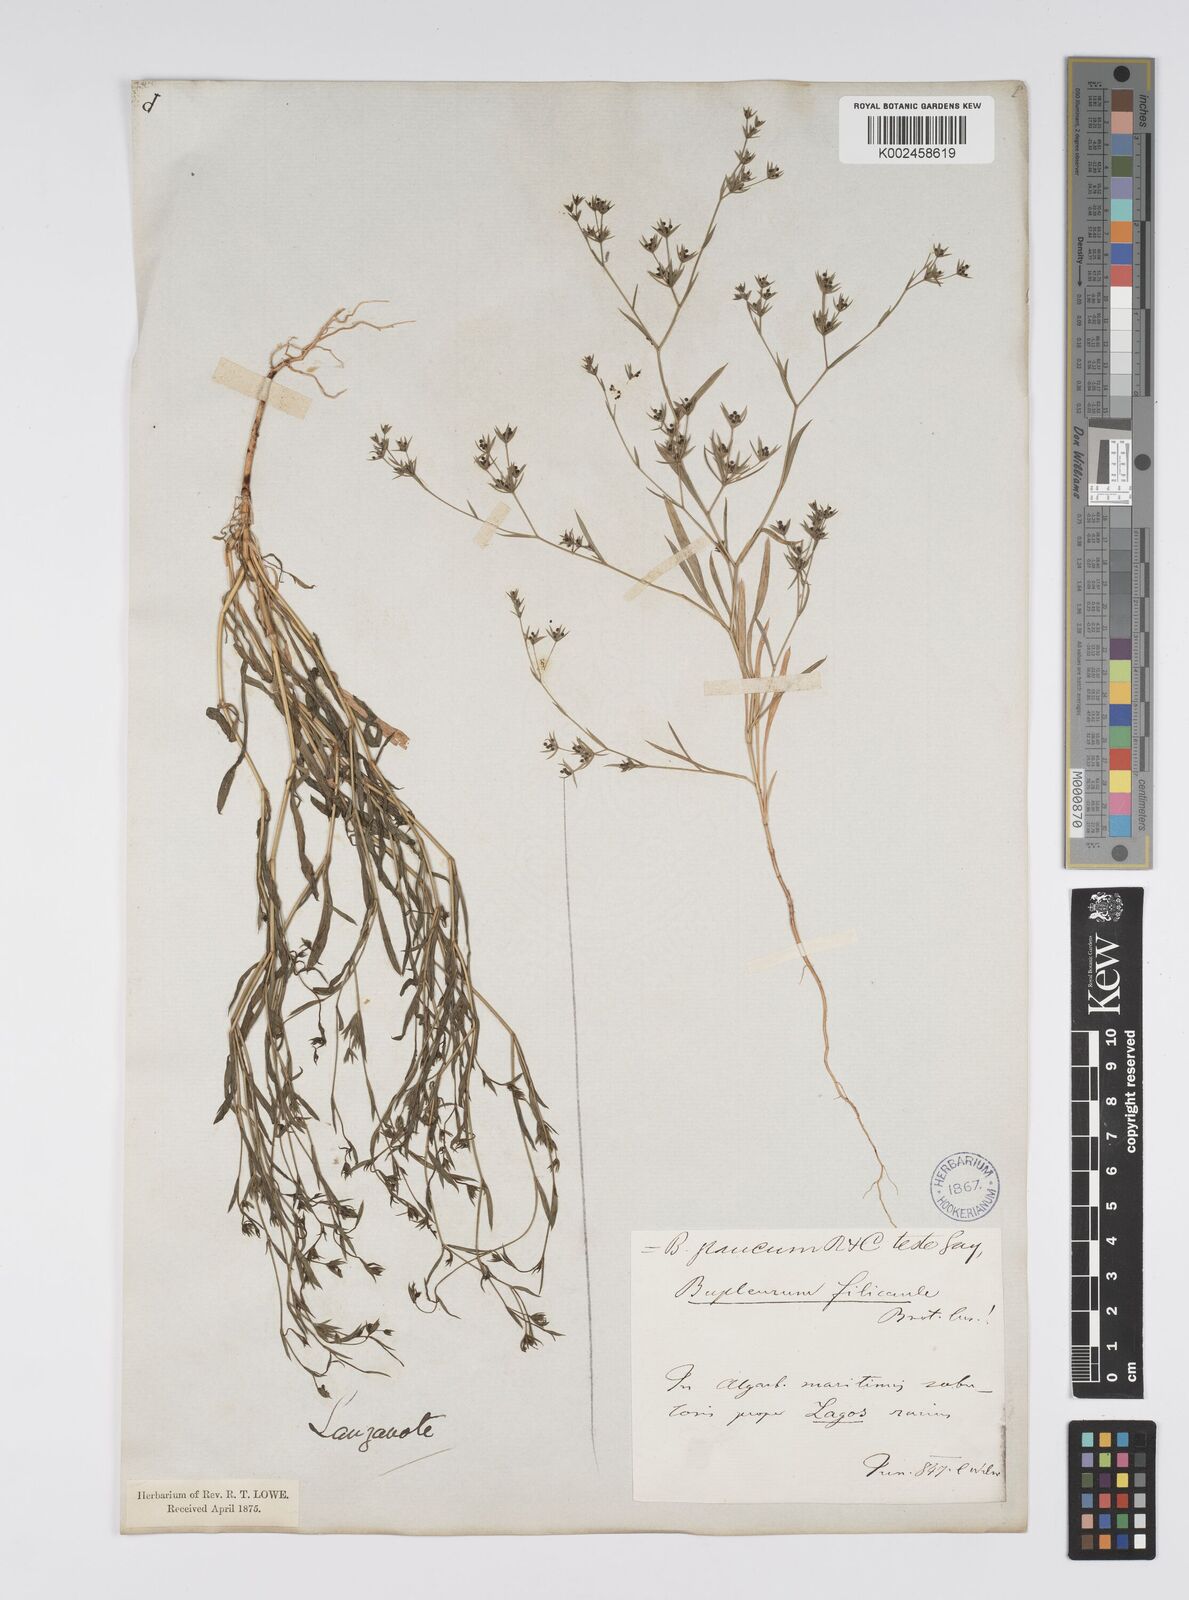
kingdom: Plantae
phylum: Tracheophyta
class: Magnoliopsida
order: Apiales
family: Apiaceae
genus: Bupleurum
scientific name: Bupleurum semicompositum
